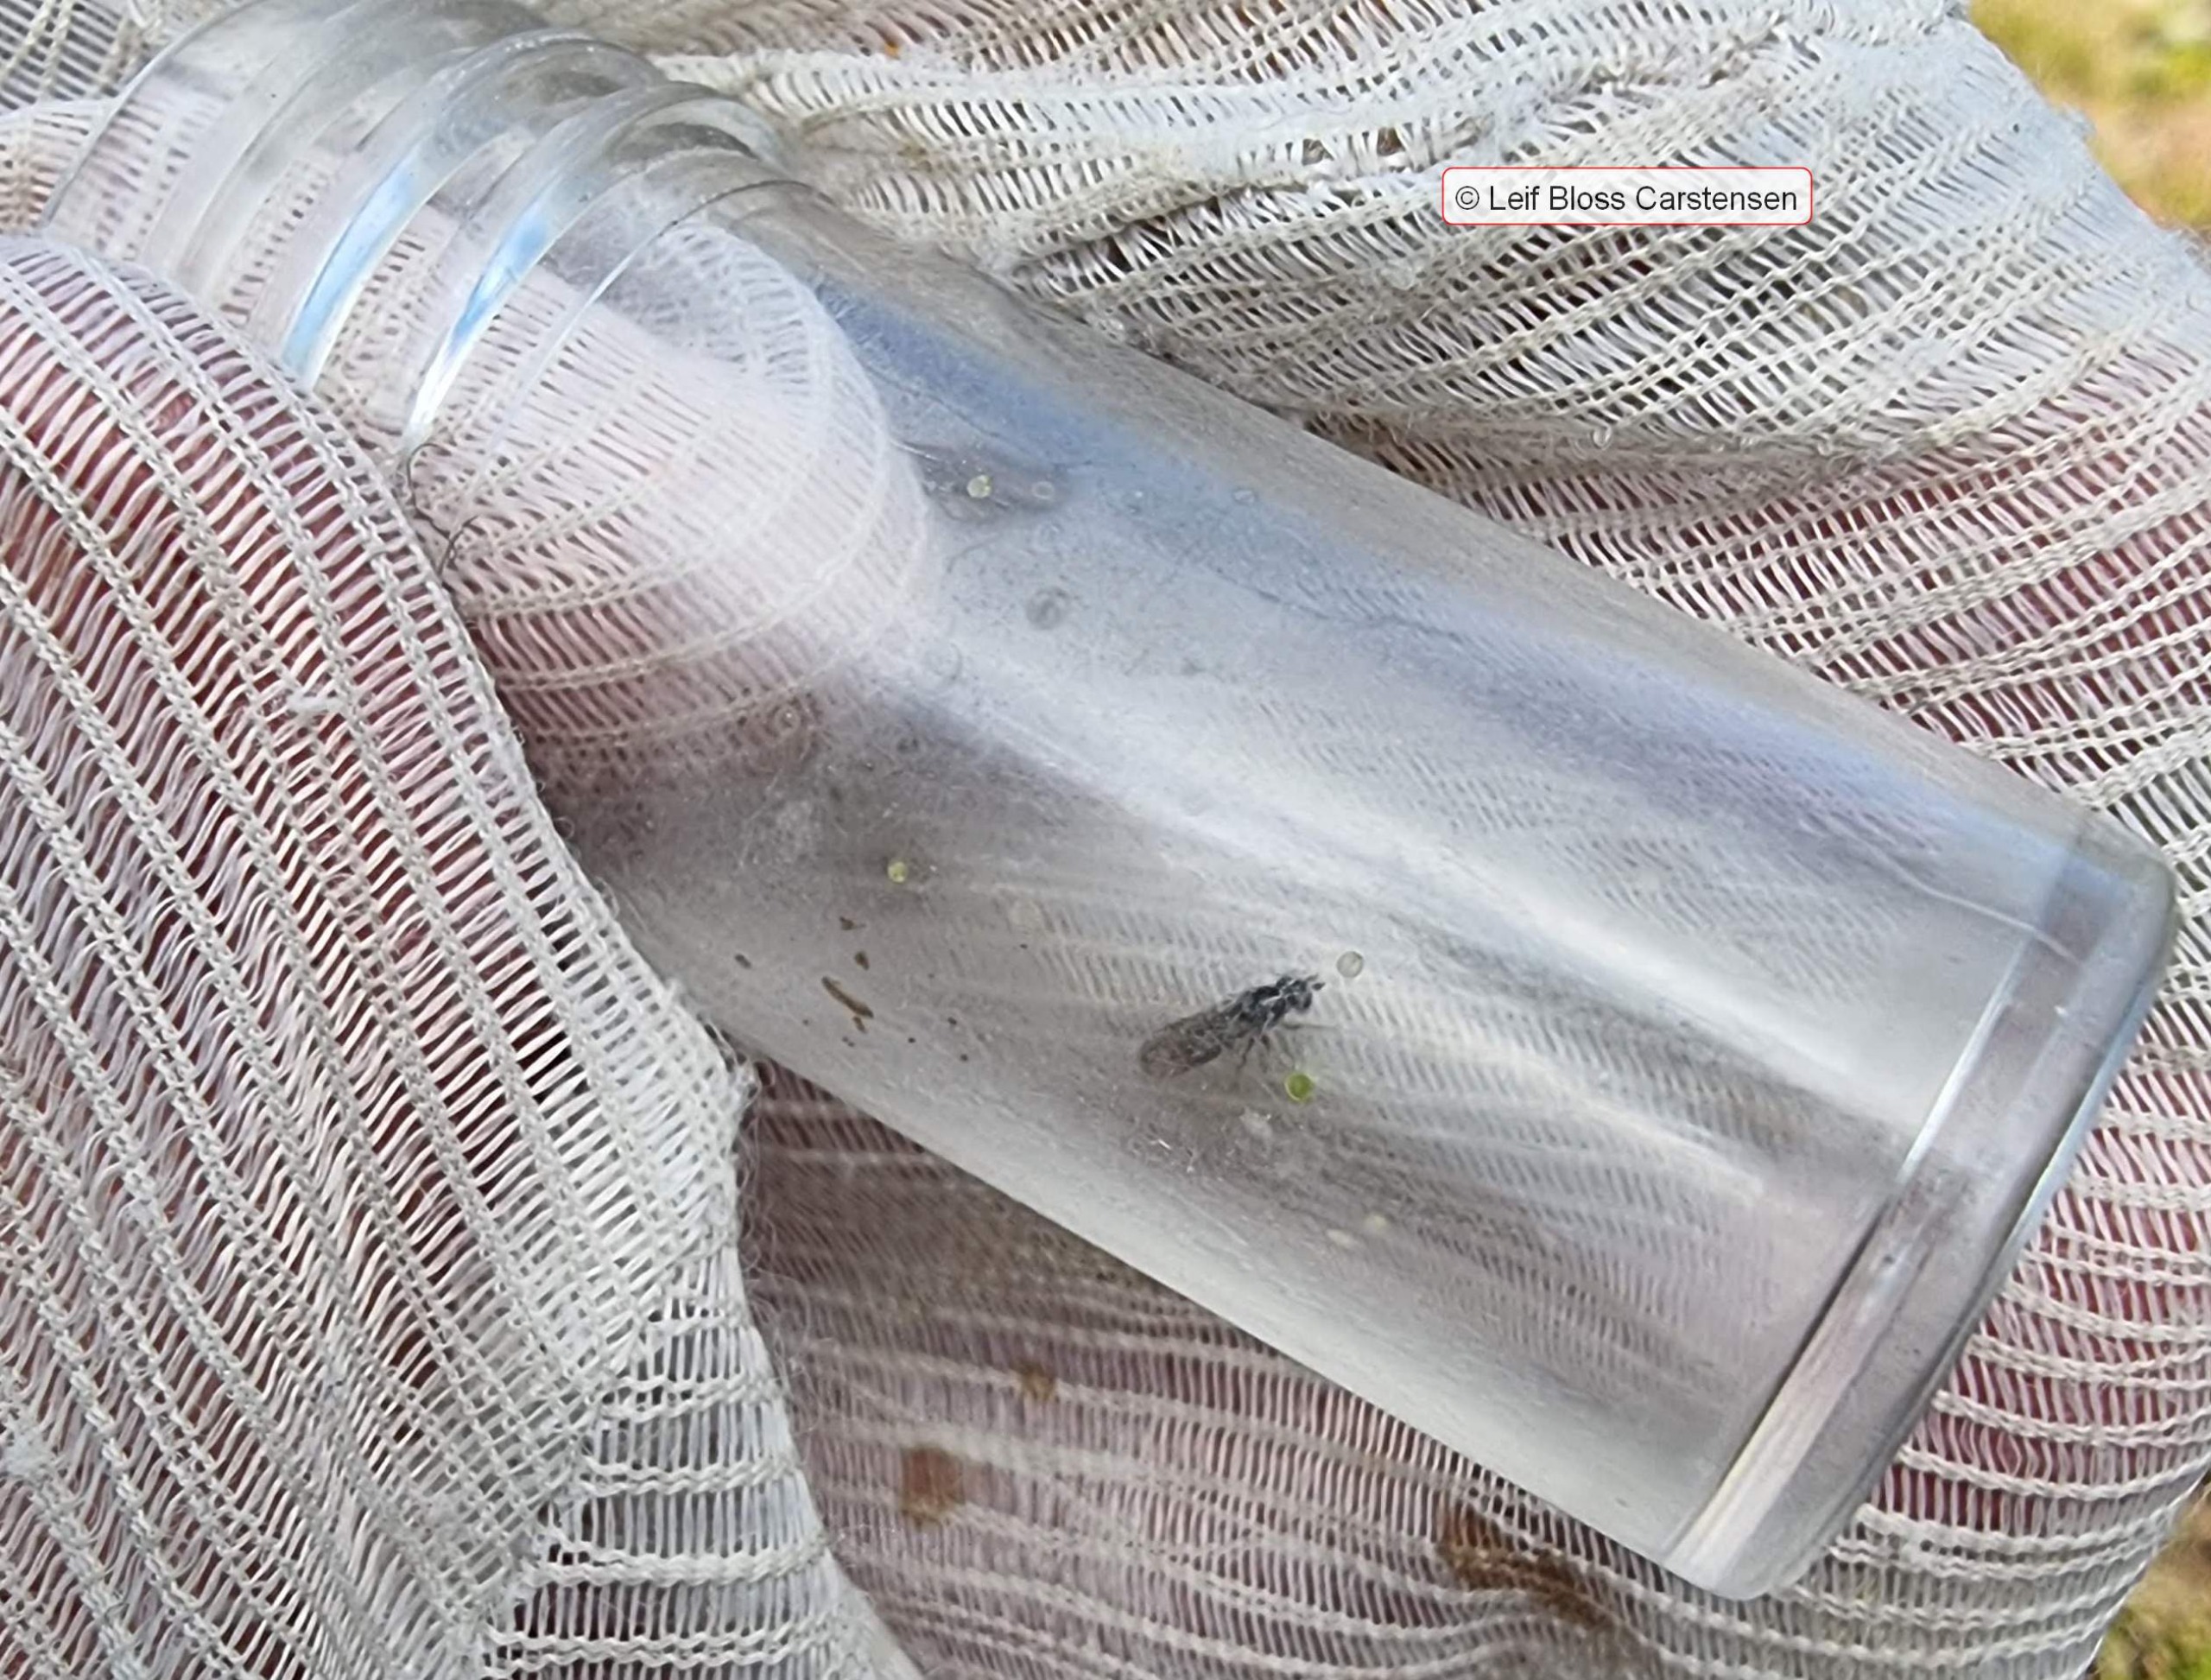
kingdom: Animalia
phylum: Arthropoda
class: Insecta
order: Diptera
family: Syrphidae
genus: Chamaesyrphus
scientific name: Chamaesyrphus lugubris
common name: Dværg-svirreflue
